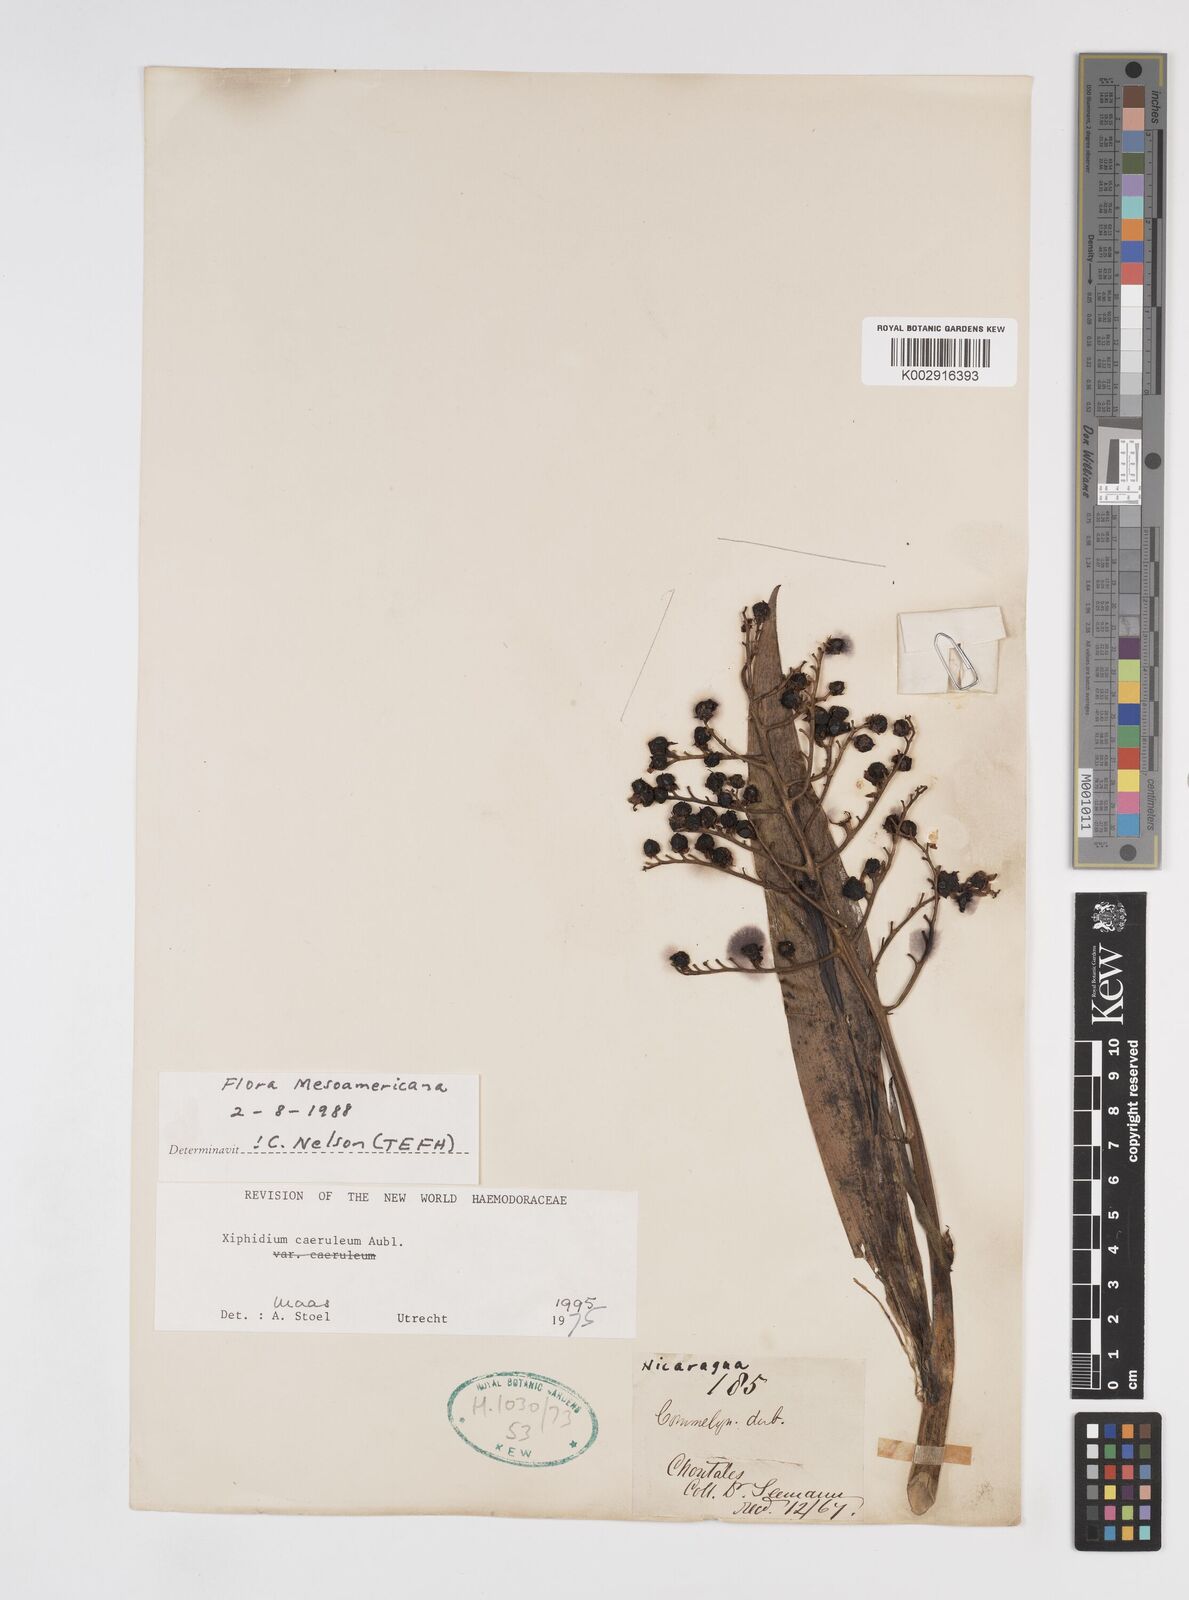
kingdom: Plantae
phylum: Tracheophyta
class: Liliopsida
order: Commelinales
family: Haemodoraceae
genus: Xiphidium
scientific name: Xiphidium caeruleum
